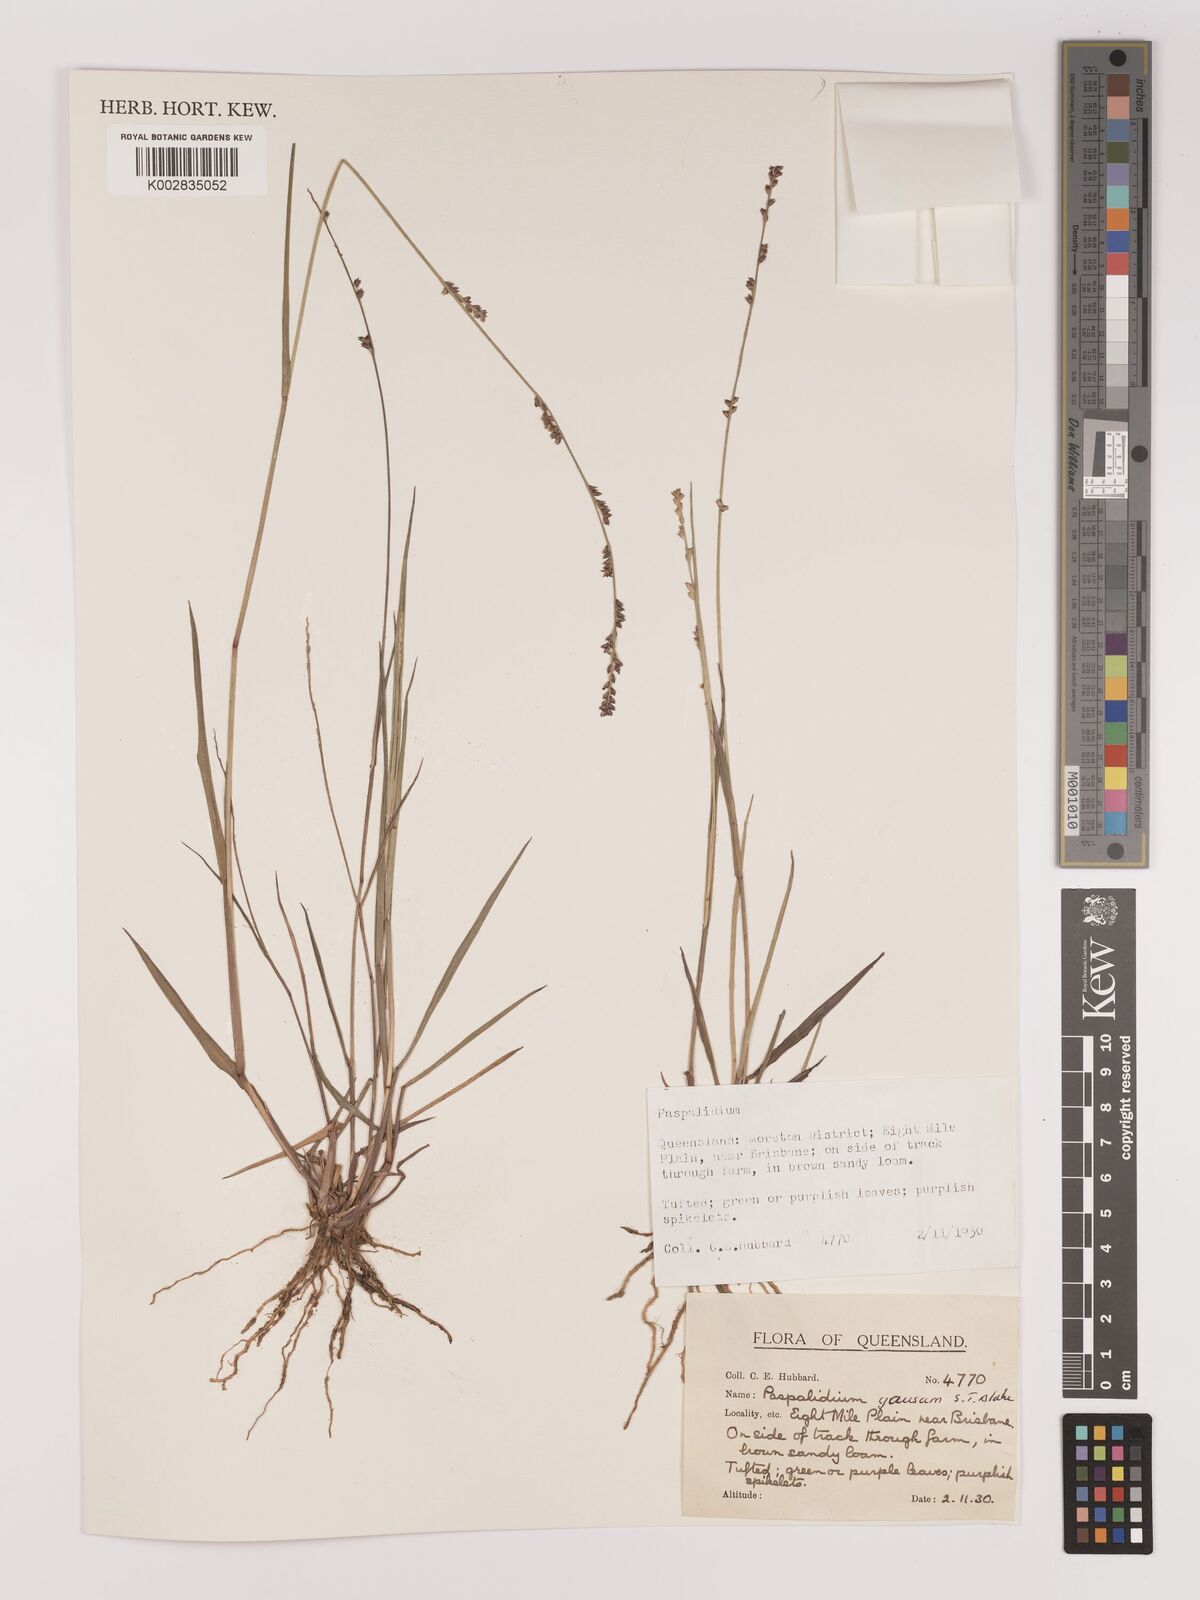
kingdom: Plantae
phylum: Tracheophyta
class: Liliopsida
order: Poales
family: Poaceae
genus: Setaria
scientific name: Setaria
